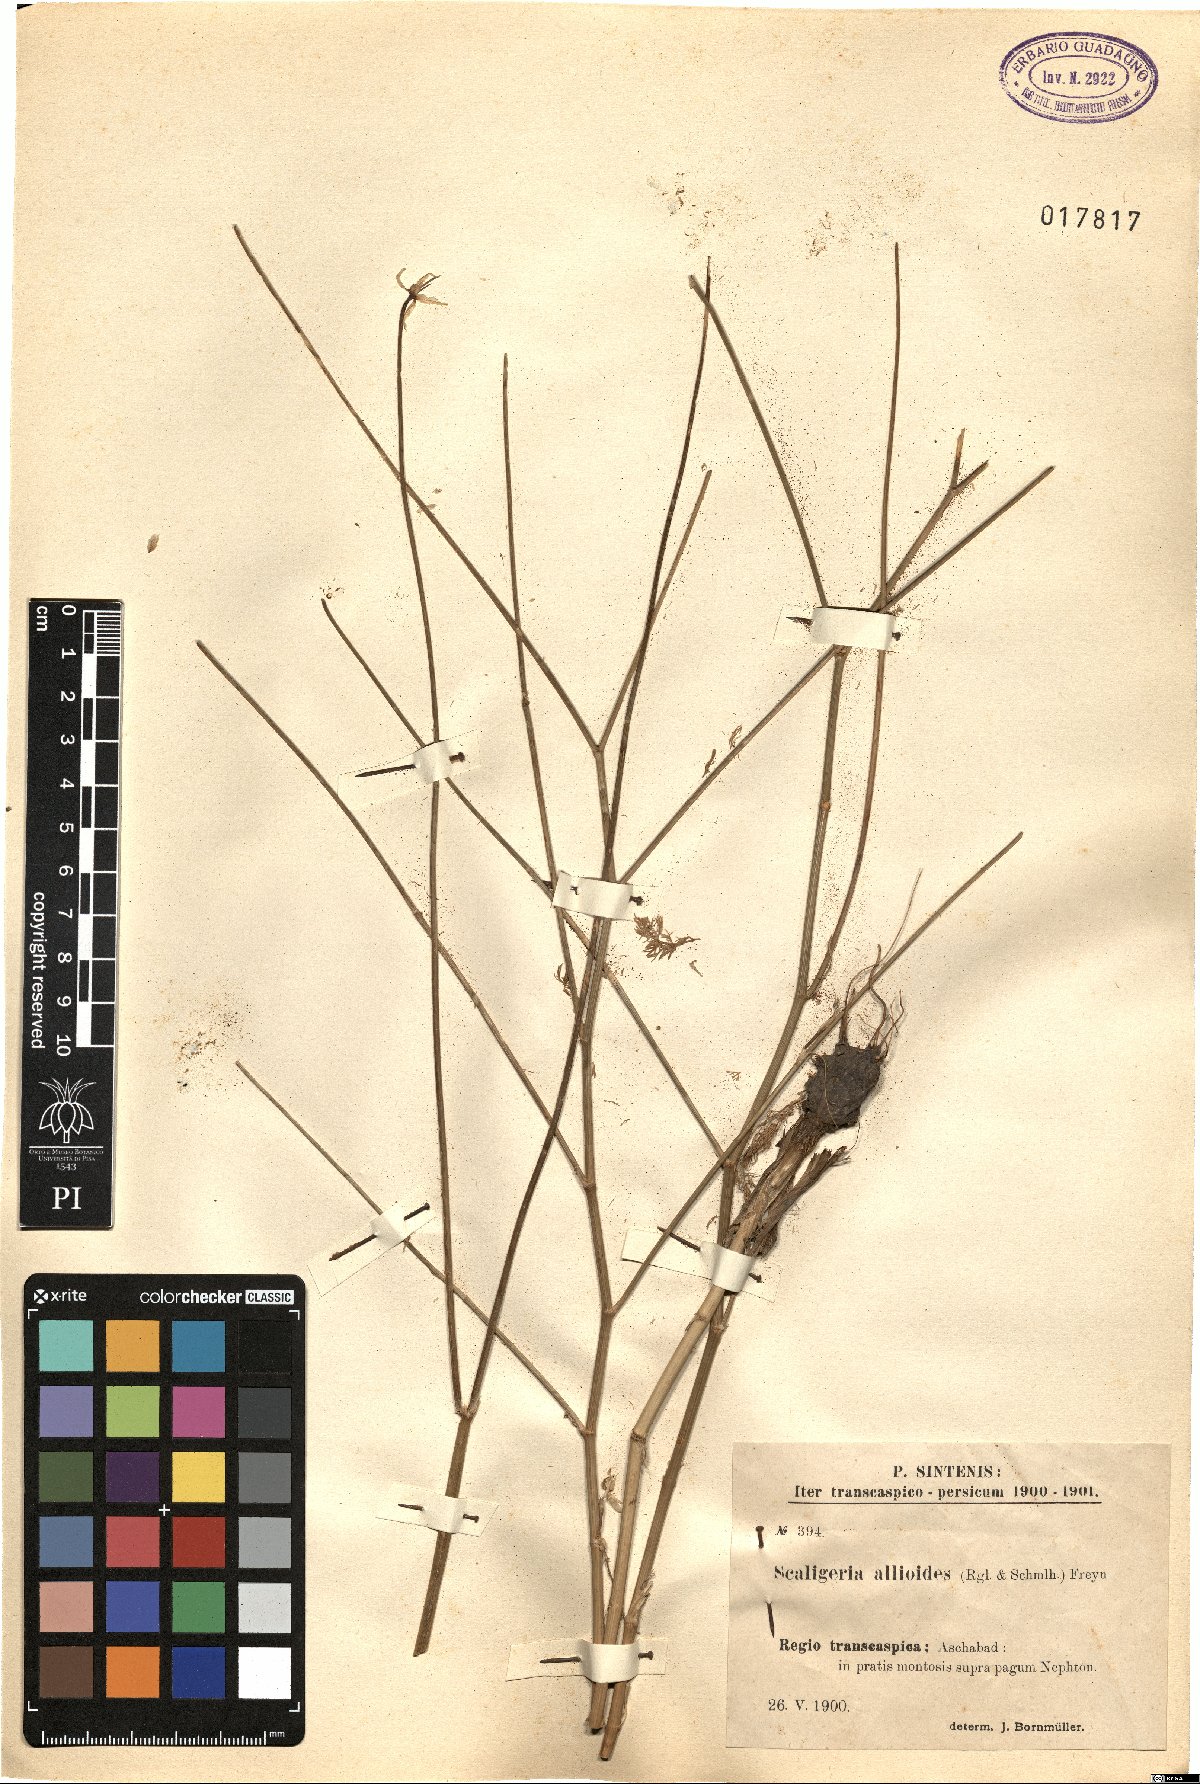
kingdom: Plantae
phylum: Tracheophyta
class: Magnoliopsida
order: Apiales
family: Apiaceae
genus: Scaligeria
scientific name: Scaligeria allioides
